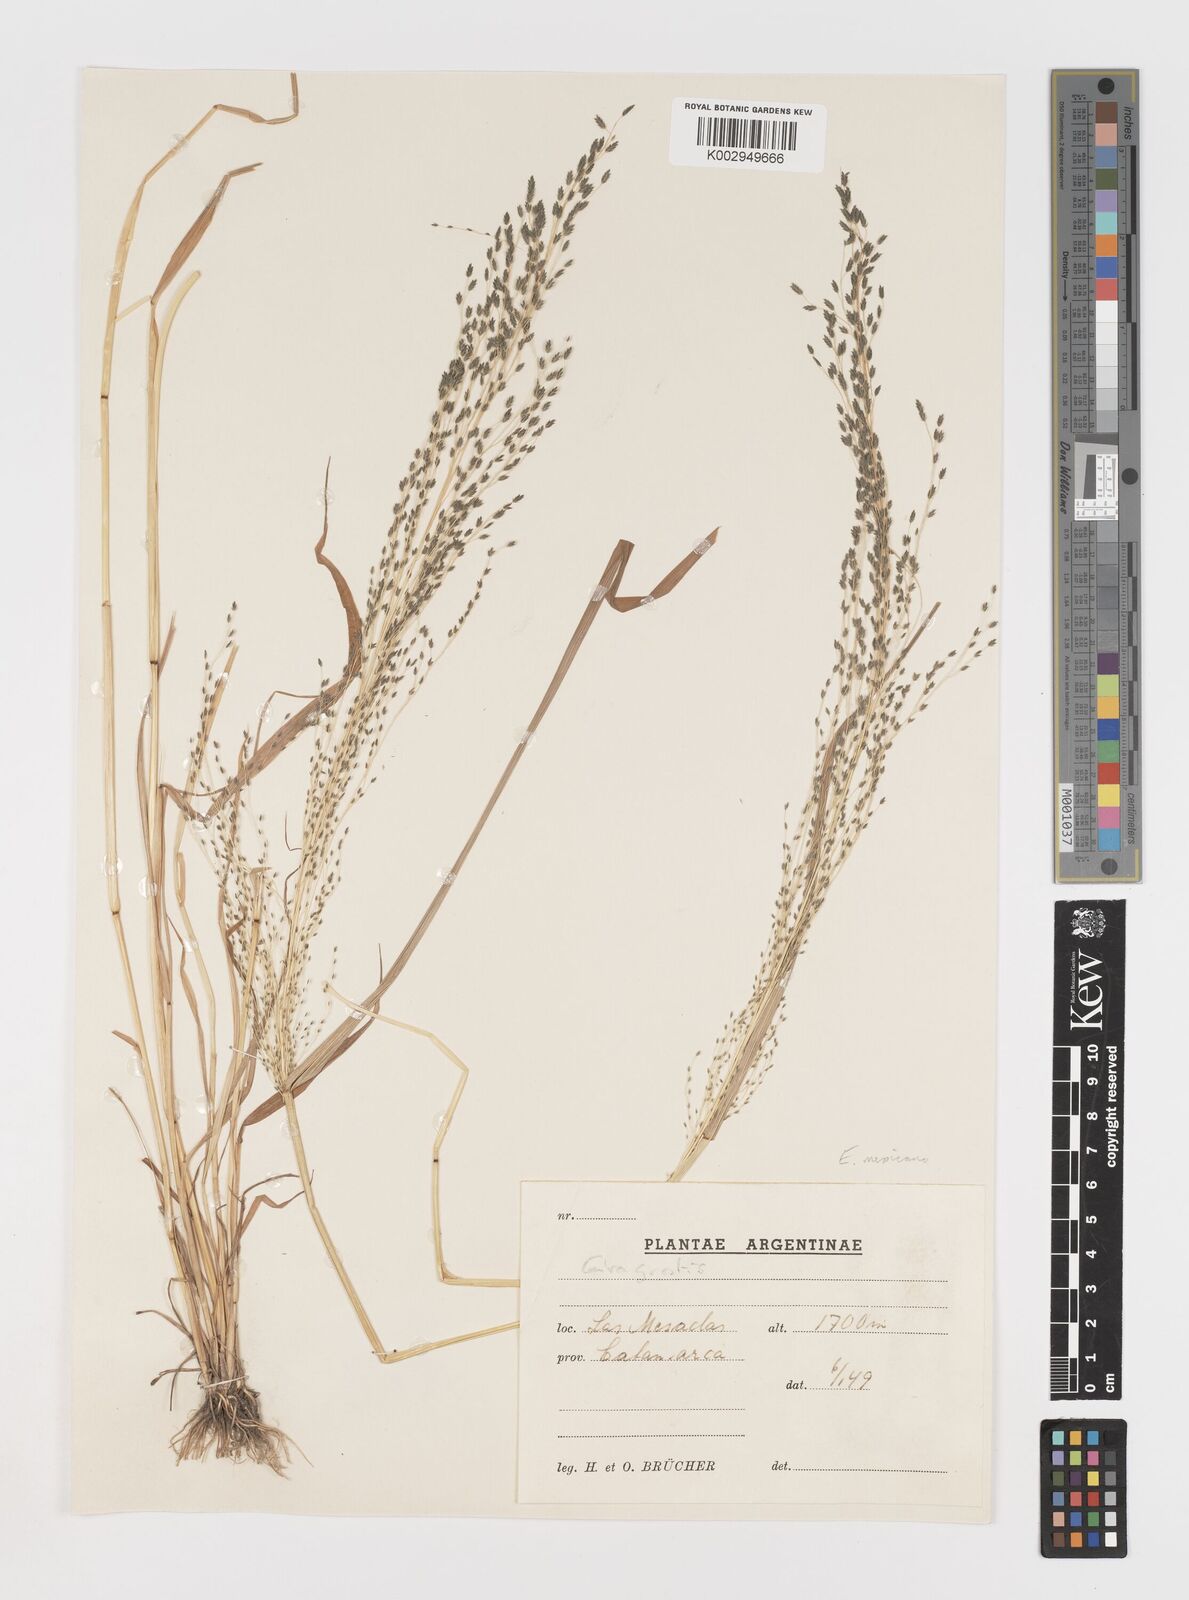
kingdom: Plantae
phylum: Tracheophyta
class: Liliopsida
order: Poales
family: Poaceae
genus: Eragrostis
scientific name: Eragrostis mexicana
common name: Mexican love grass
